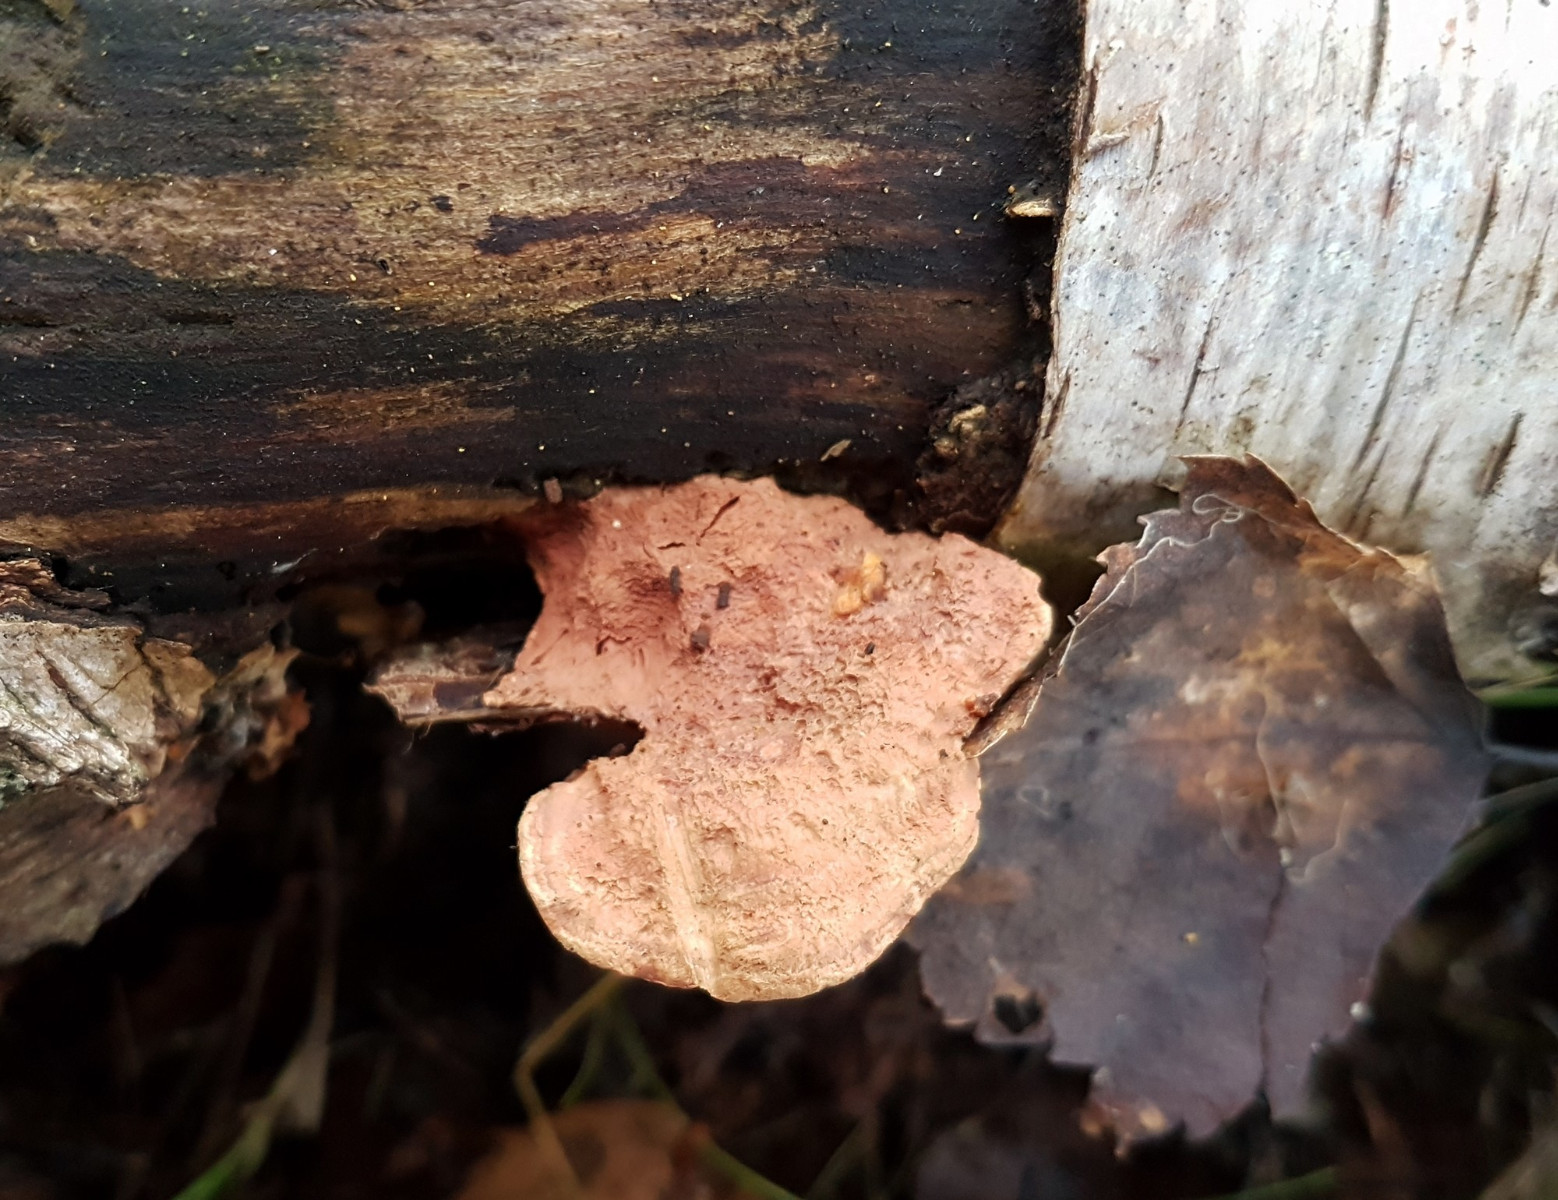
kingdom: Fungi
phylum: Basidiomycota
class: Agaricomycetes
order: Polyporales
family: Phanerochaetaceae
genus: Hapalopilus
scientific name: Hapalopilus rutilans
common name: rødlig okkerporesvamp
